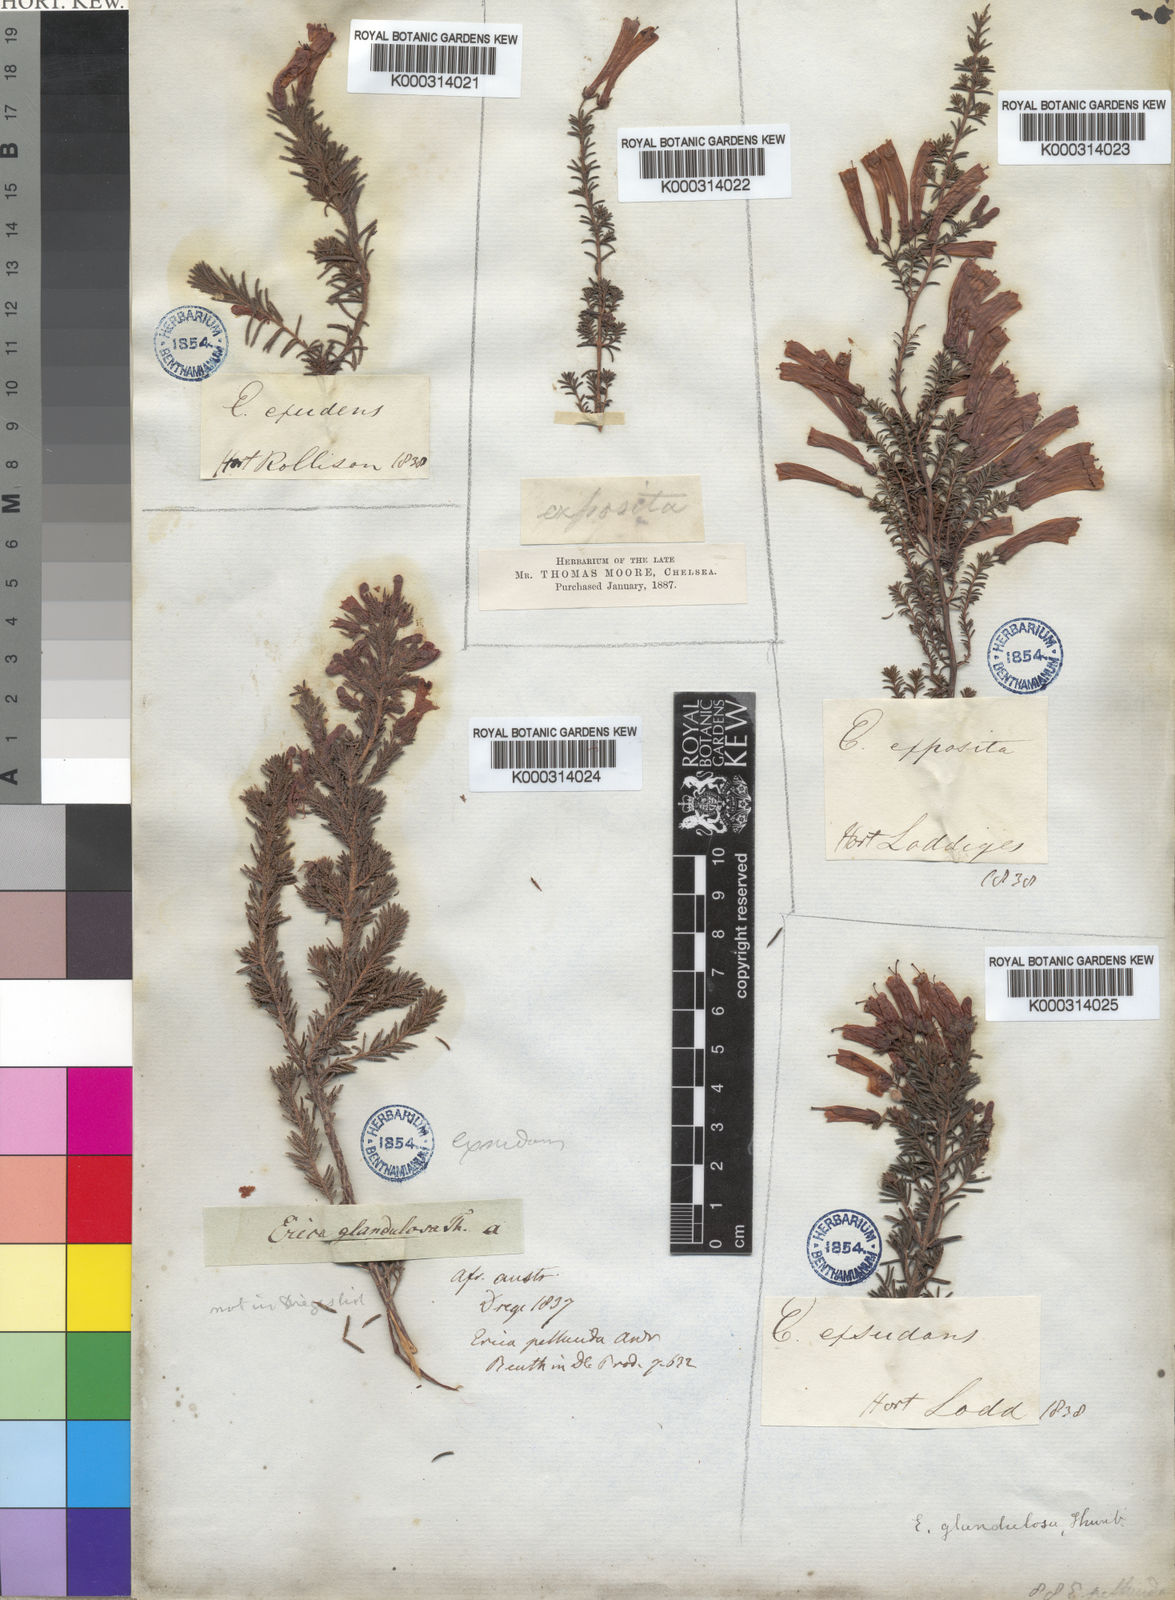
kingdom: Plantae
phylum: Tracheophyta
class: Magnoliopsida
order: Ericales
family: Ericaceae
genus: Erica
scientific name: Erica glandulosa
